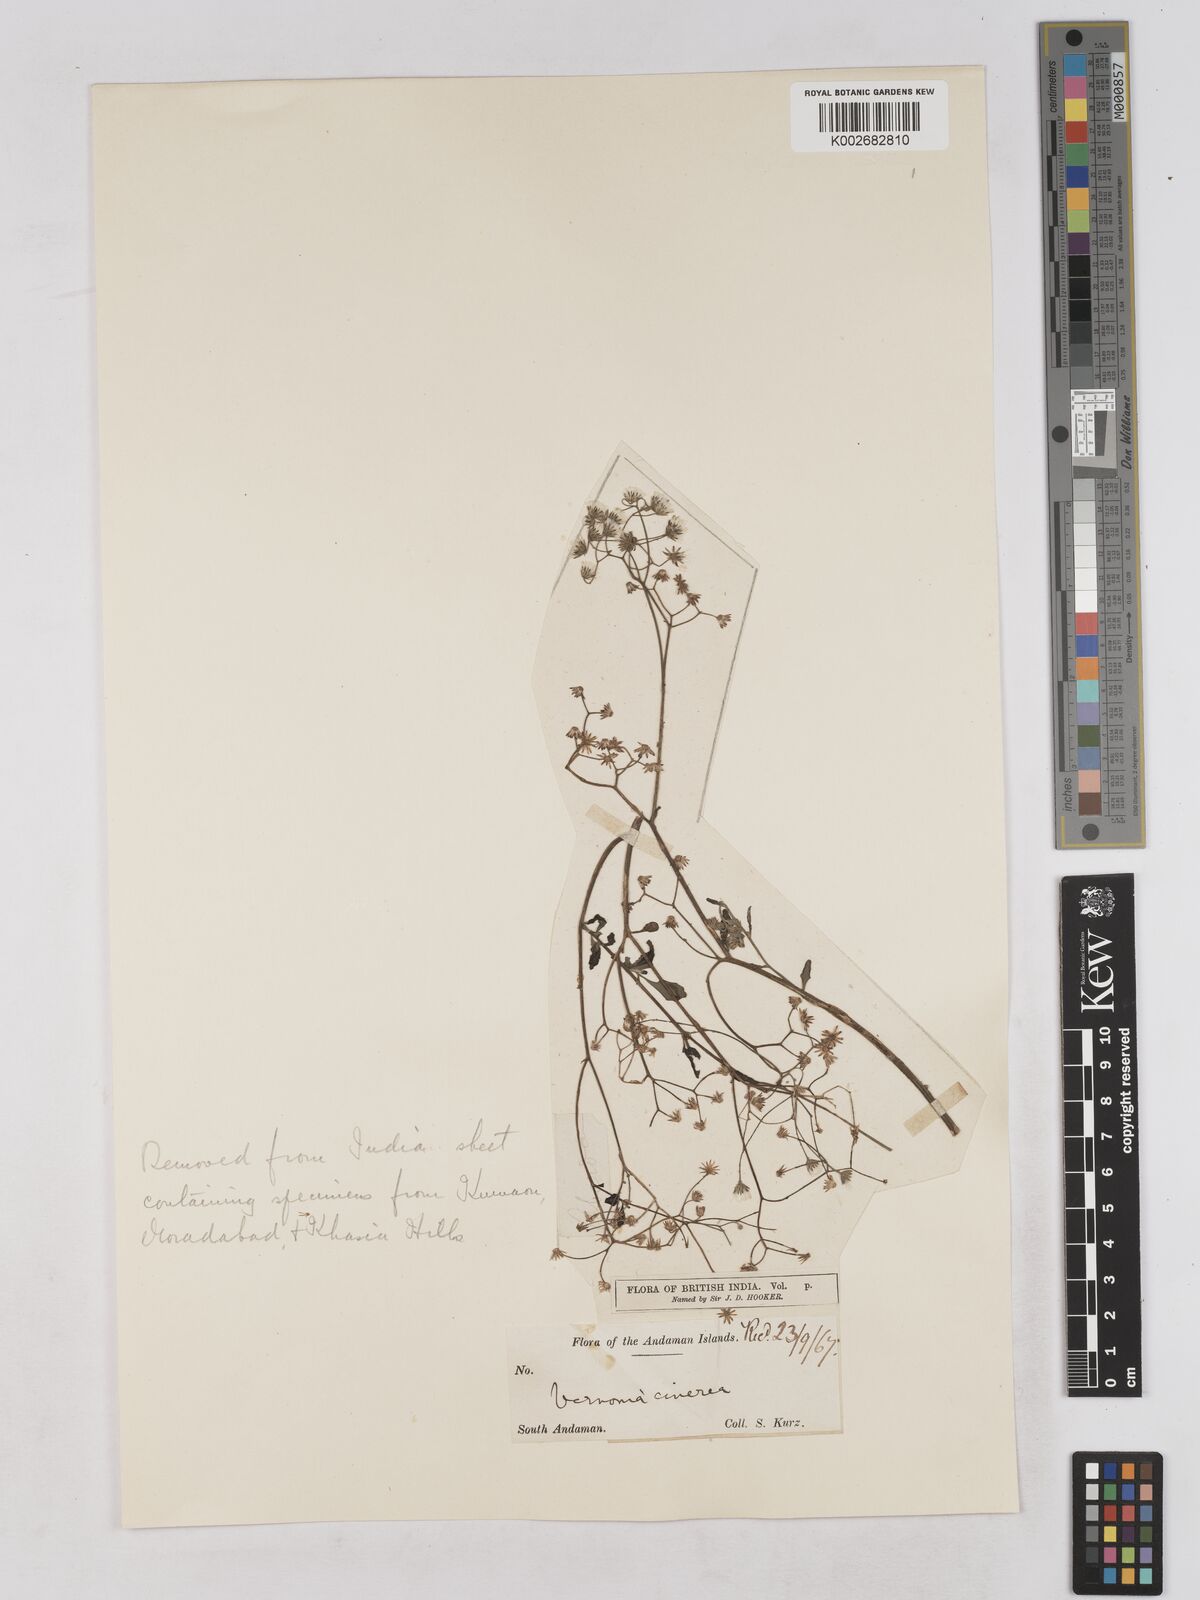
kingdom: Plantae
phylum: Tracheophyta
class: Magnoliopsida
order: Asterales
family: Asteraceae
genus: Cyanthillium
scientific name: Cyanthillium cinereum
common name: Little ironweed
